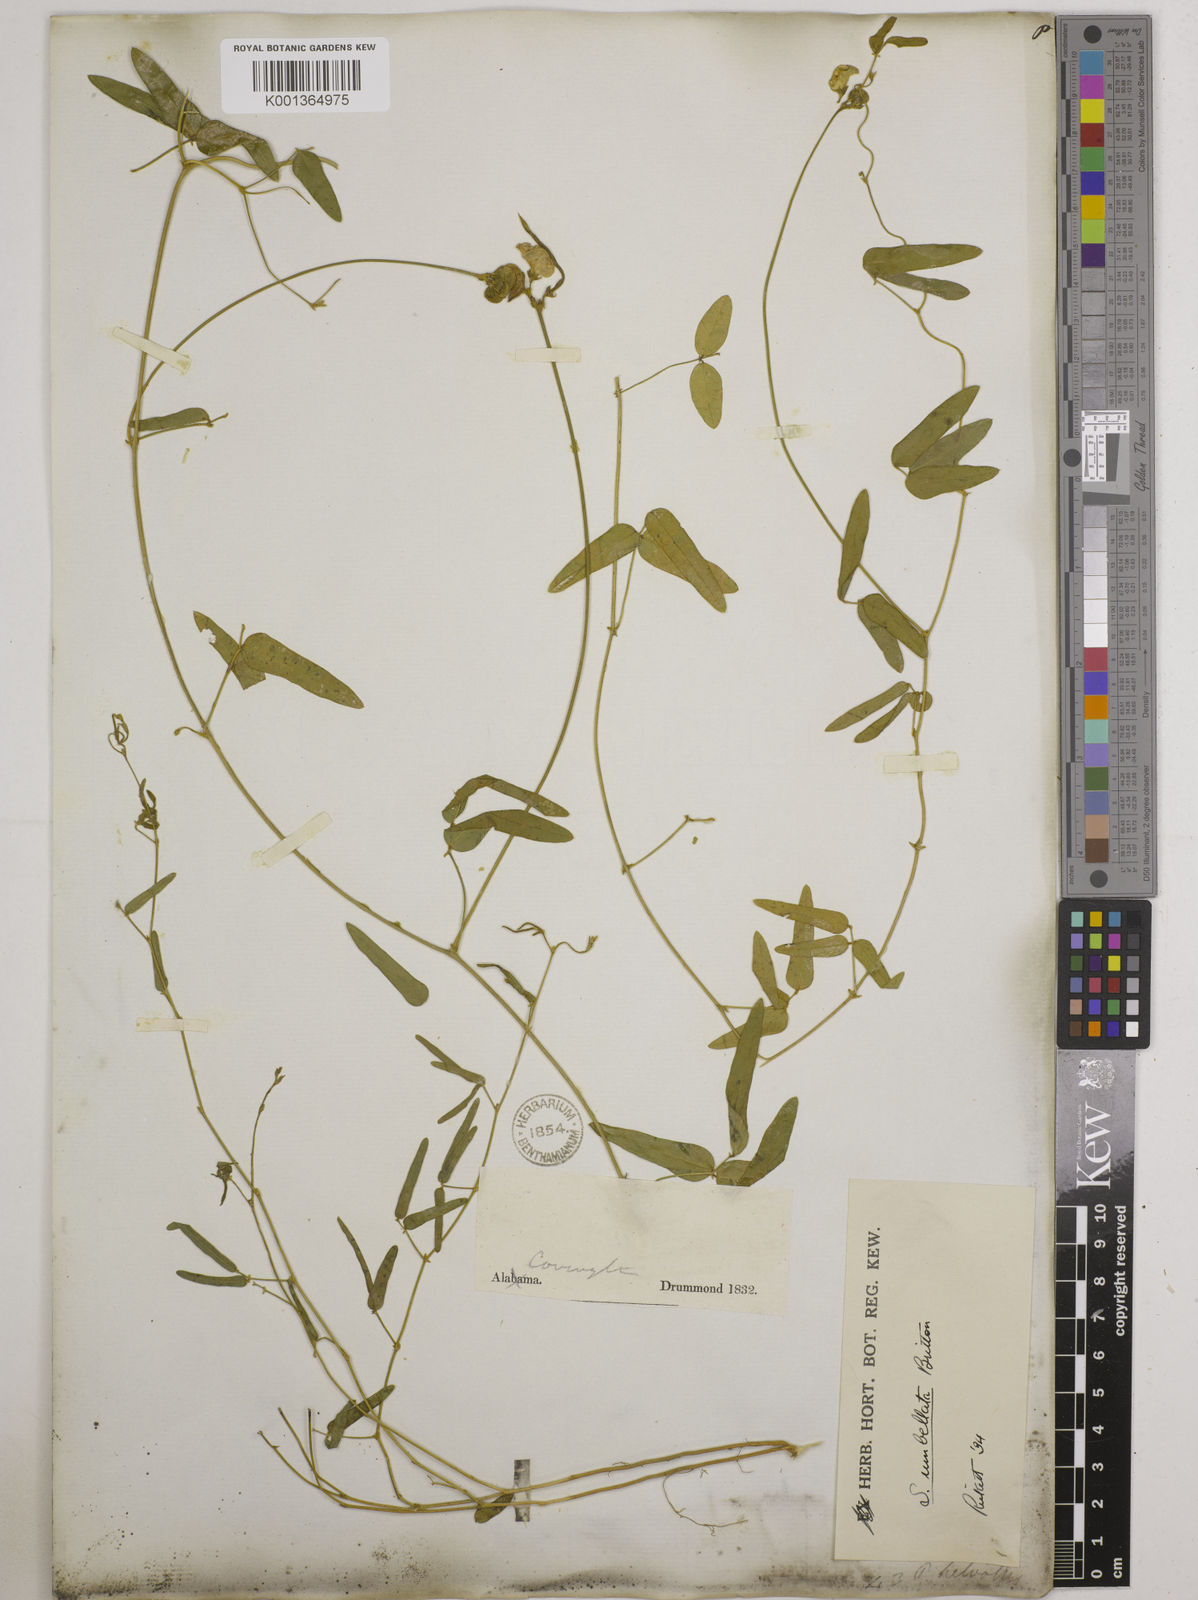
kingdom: Plantae
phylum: Tracheophyta
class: Magnoliopsida
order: Fabales
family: Fabaceae
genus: Strophostyles
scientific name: Strophostyles umbellata
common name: Perennial wild bean
